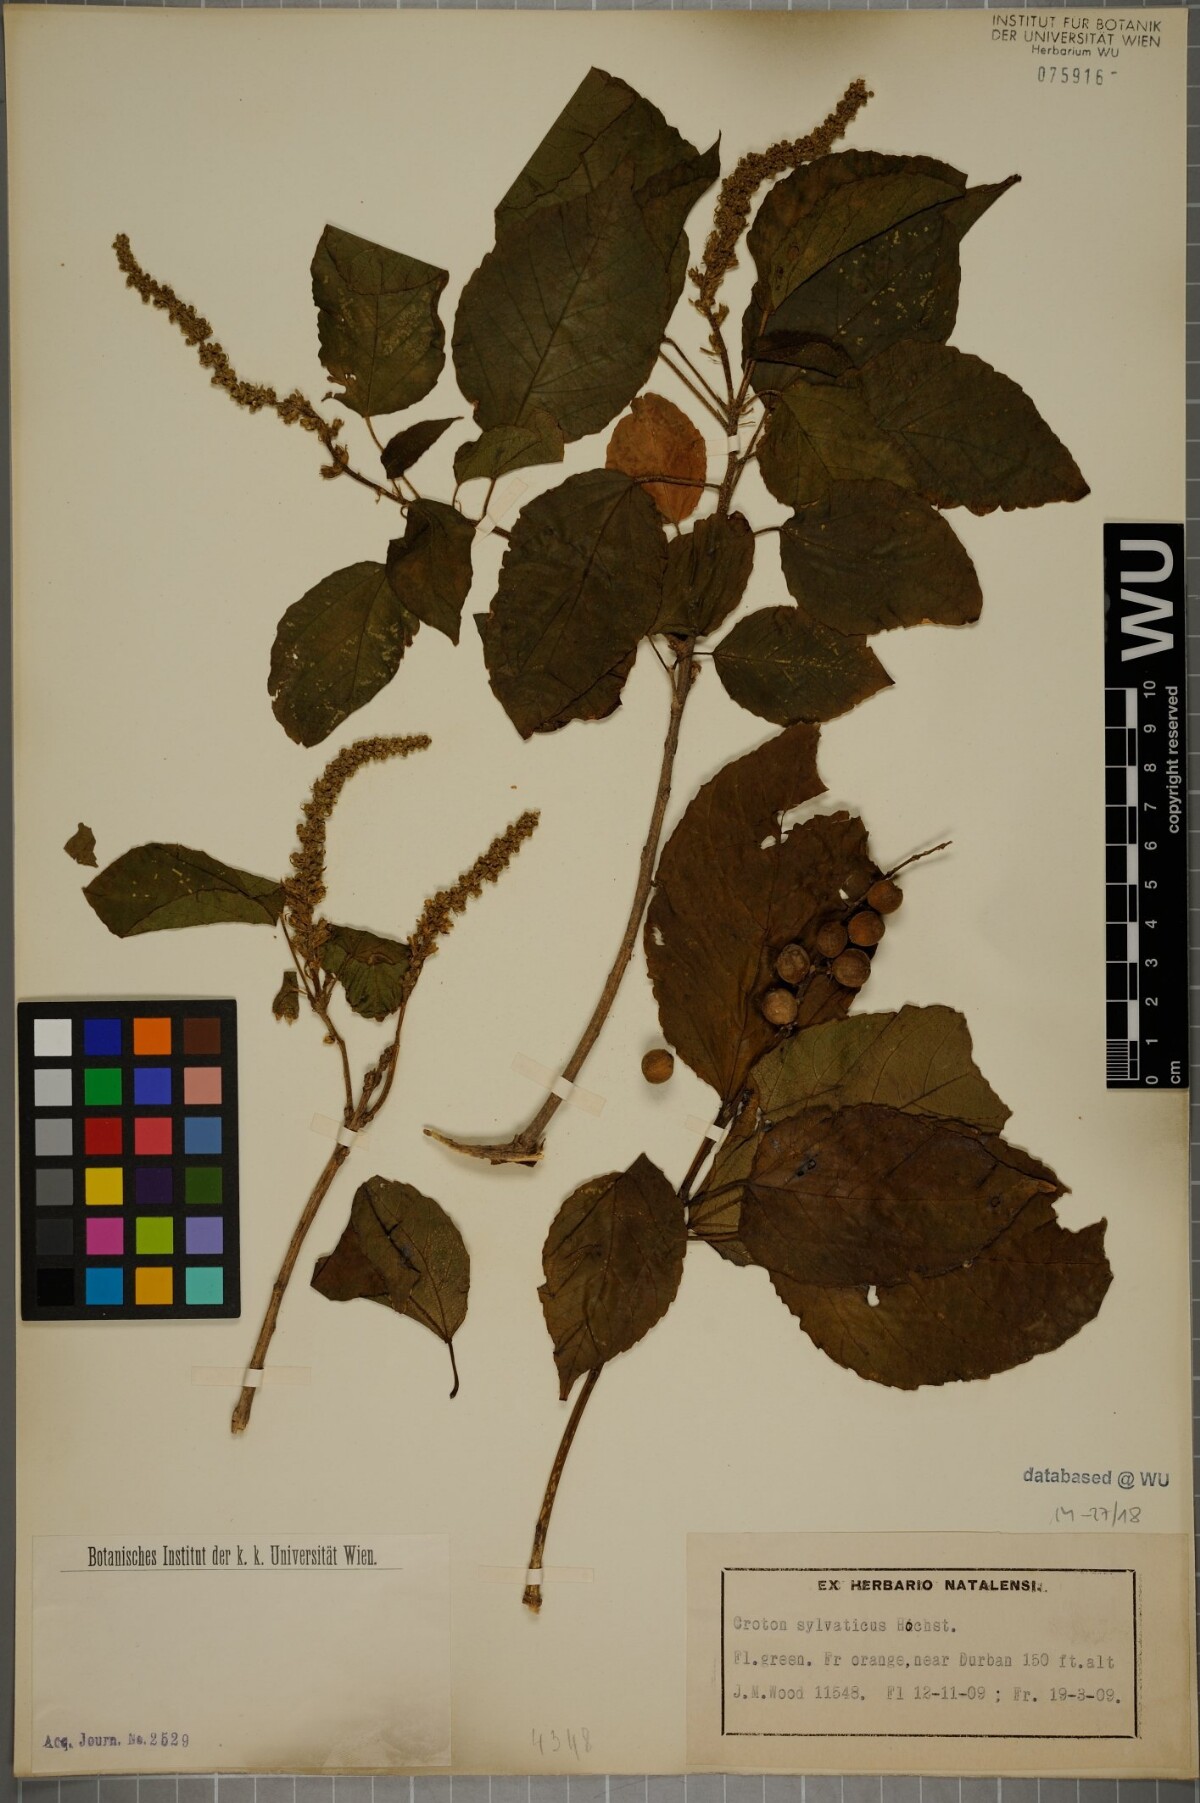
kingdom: Plantae
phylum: Tracheophyta
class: Magnoliopsida
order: Malpighiales
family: Euphorbiaceae
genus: Croton
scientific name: Croton sylvaticus
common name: Forest croton
